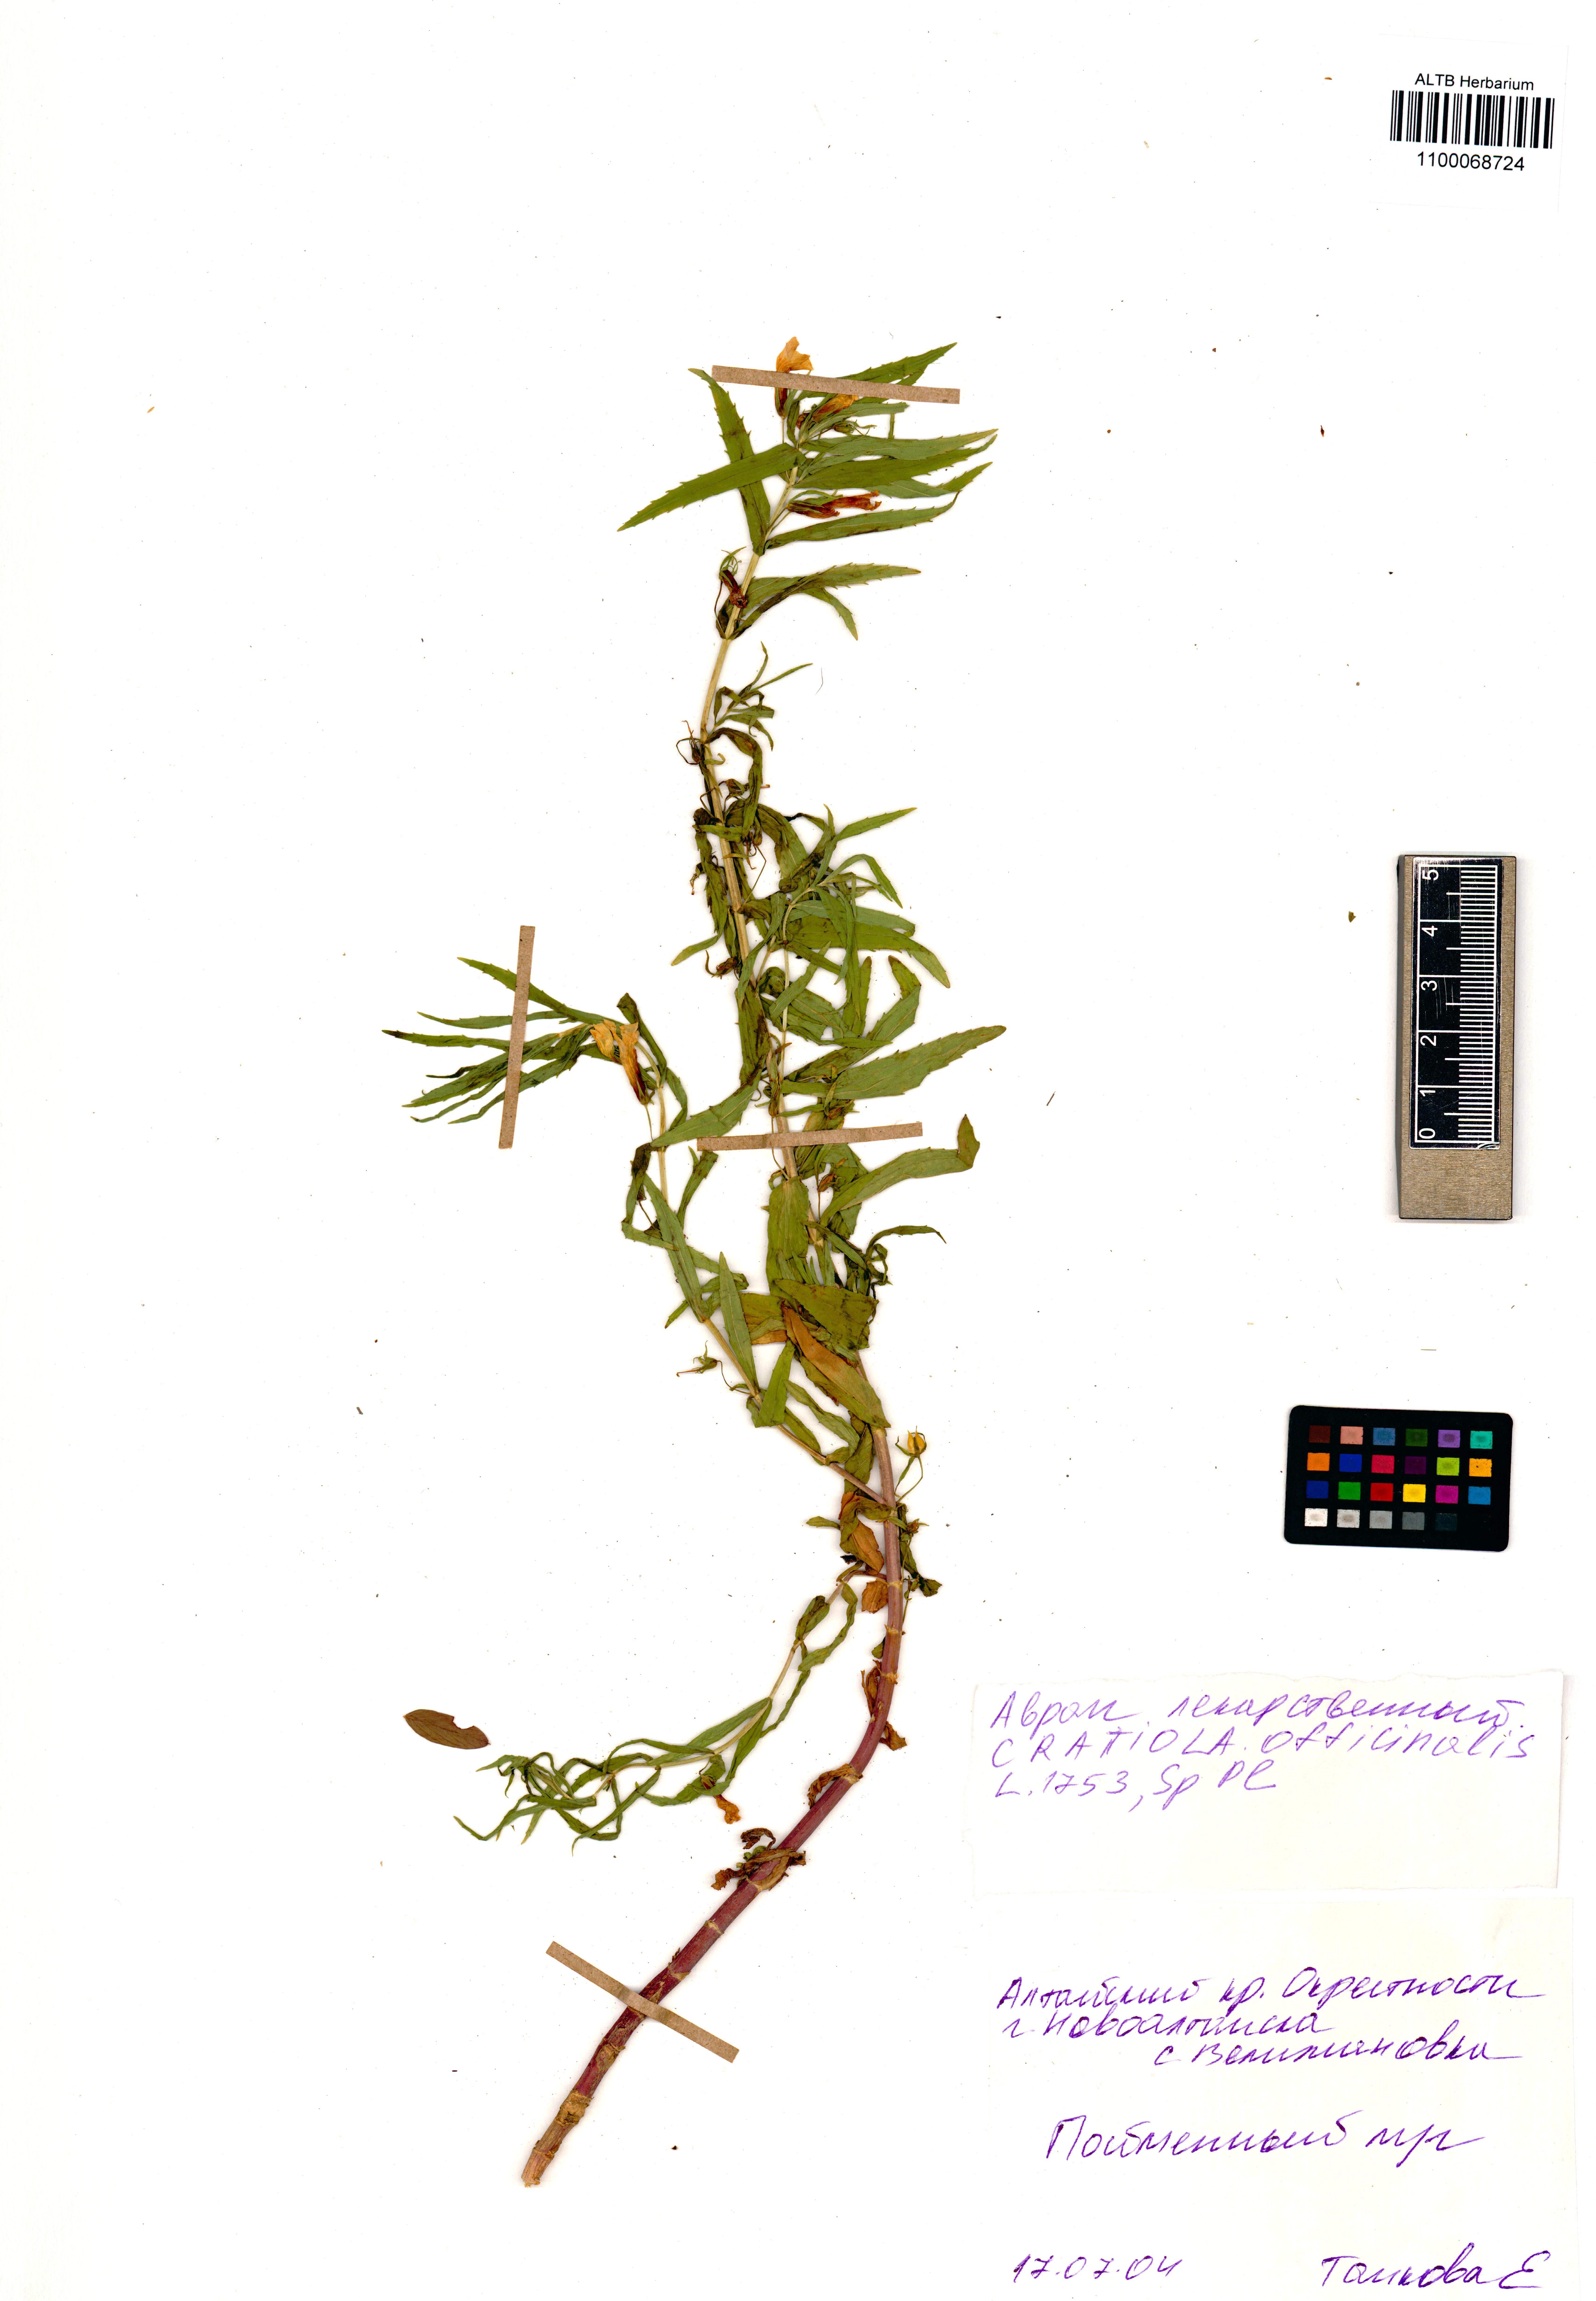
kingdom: Plantae
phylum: Tracheophyta
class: Magnoliopsida
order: Lamiales
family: Plantaginaceae
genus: Gratiola
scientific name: Gratiola officinalis
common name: Gratiola
